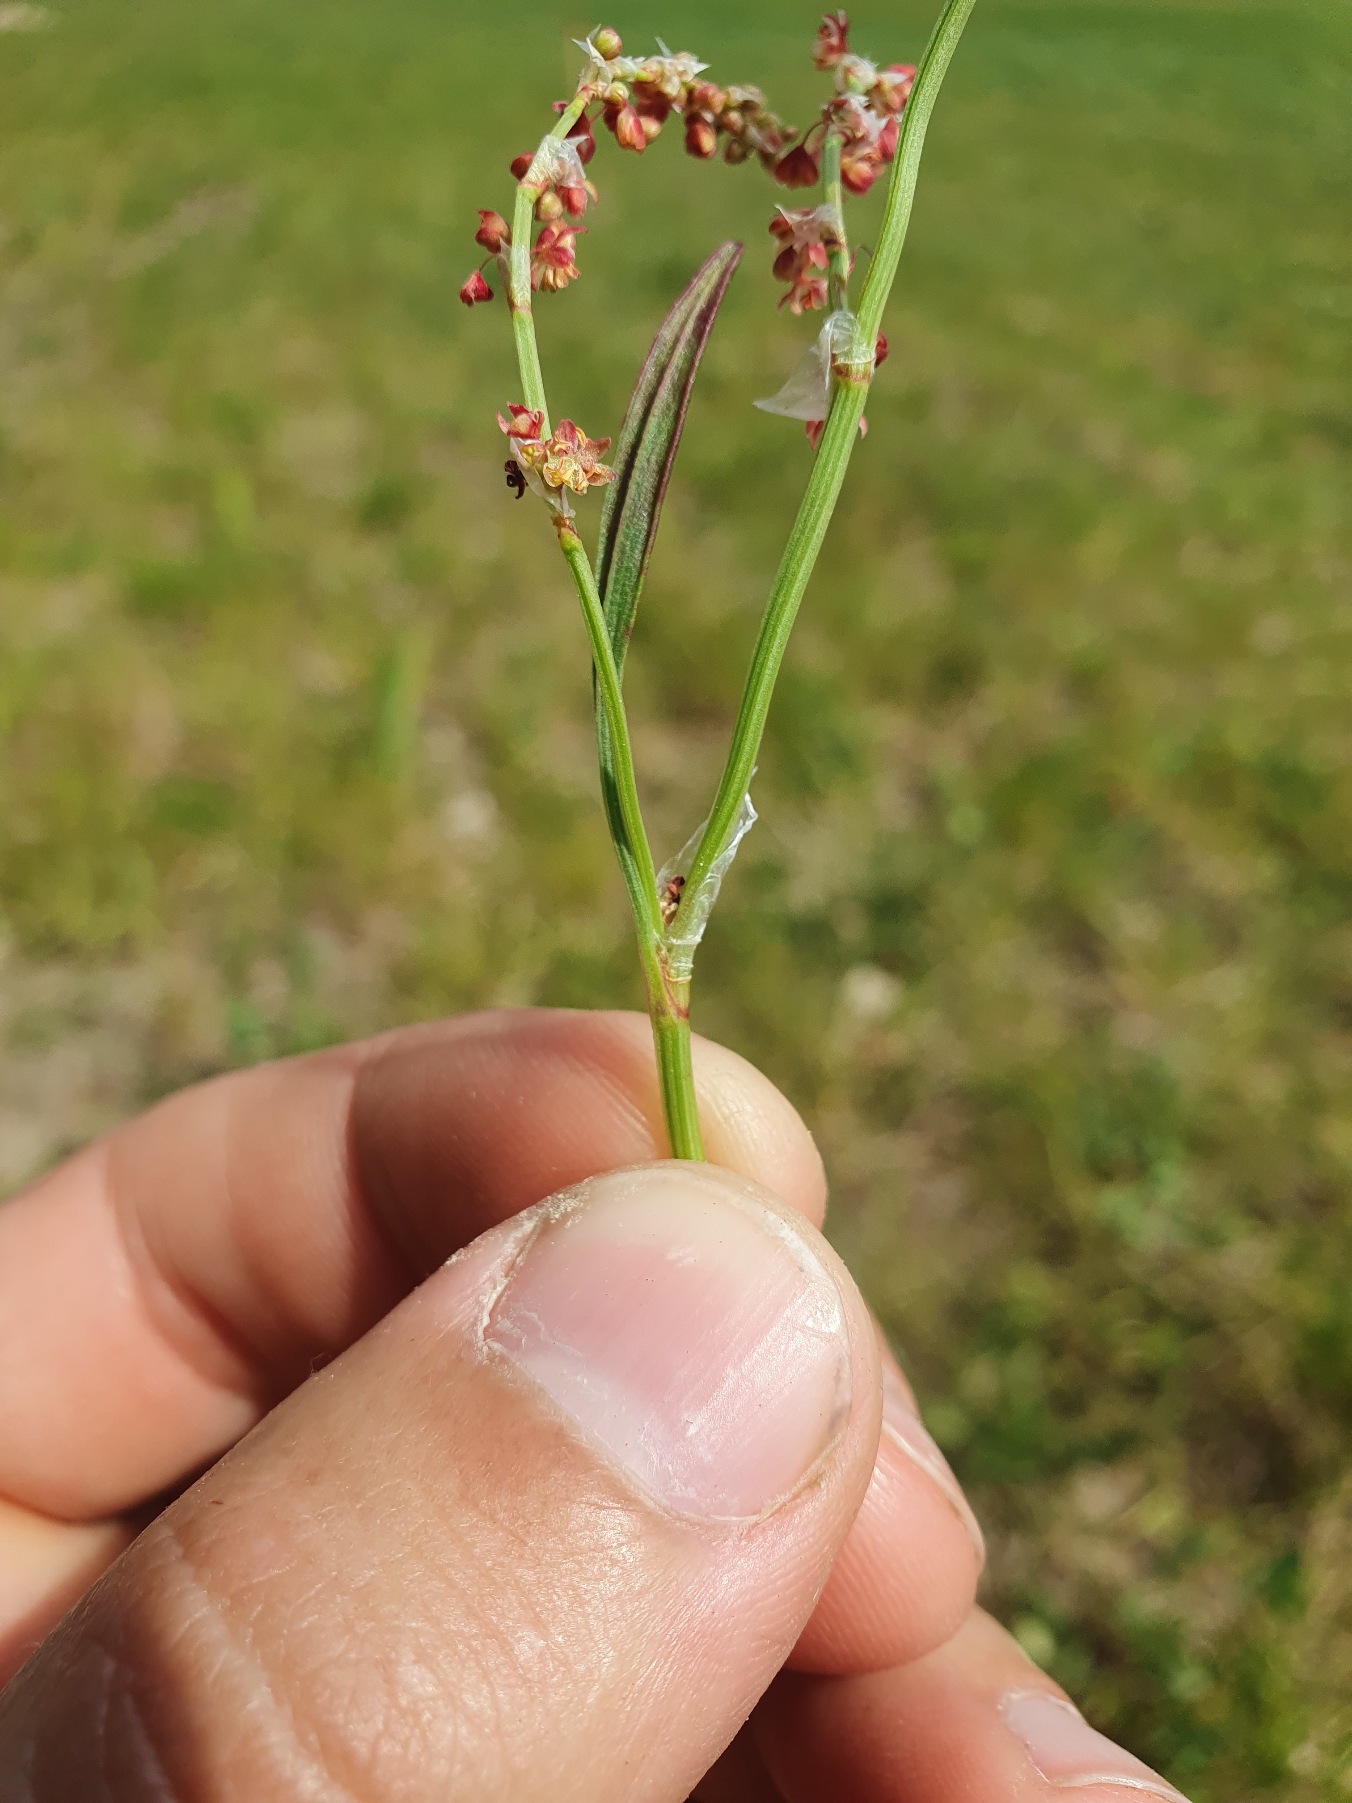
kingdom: Plantae
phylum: Tracheophyta
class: Magnoliopsida
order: Caryophyllales
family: Polygonaceae
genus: Rumex
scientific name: Rumex acetosella
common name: Rødknæ
